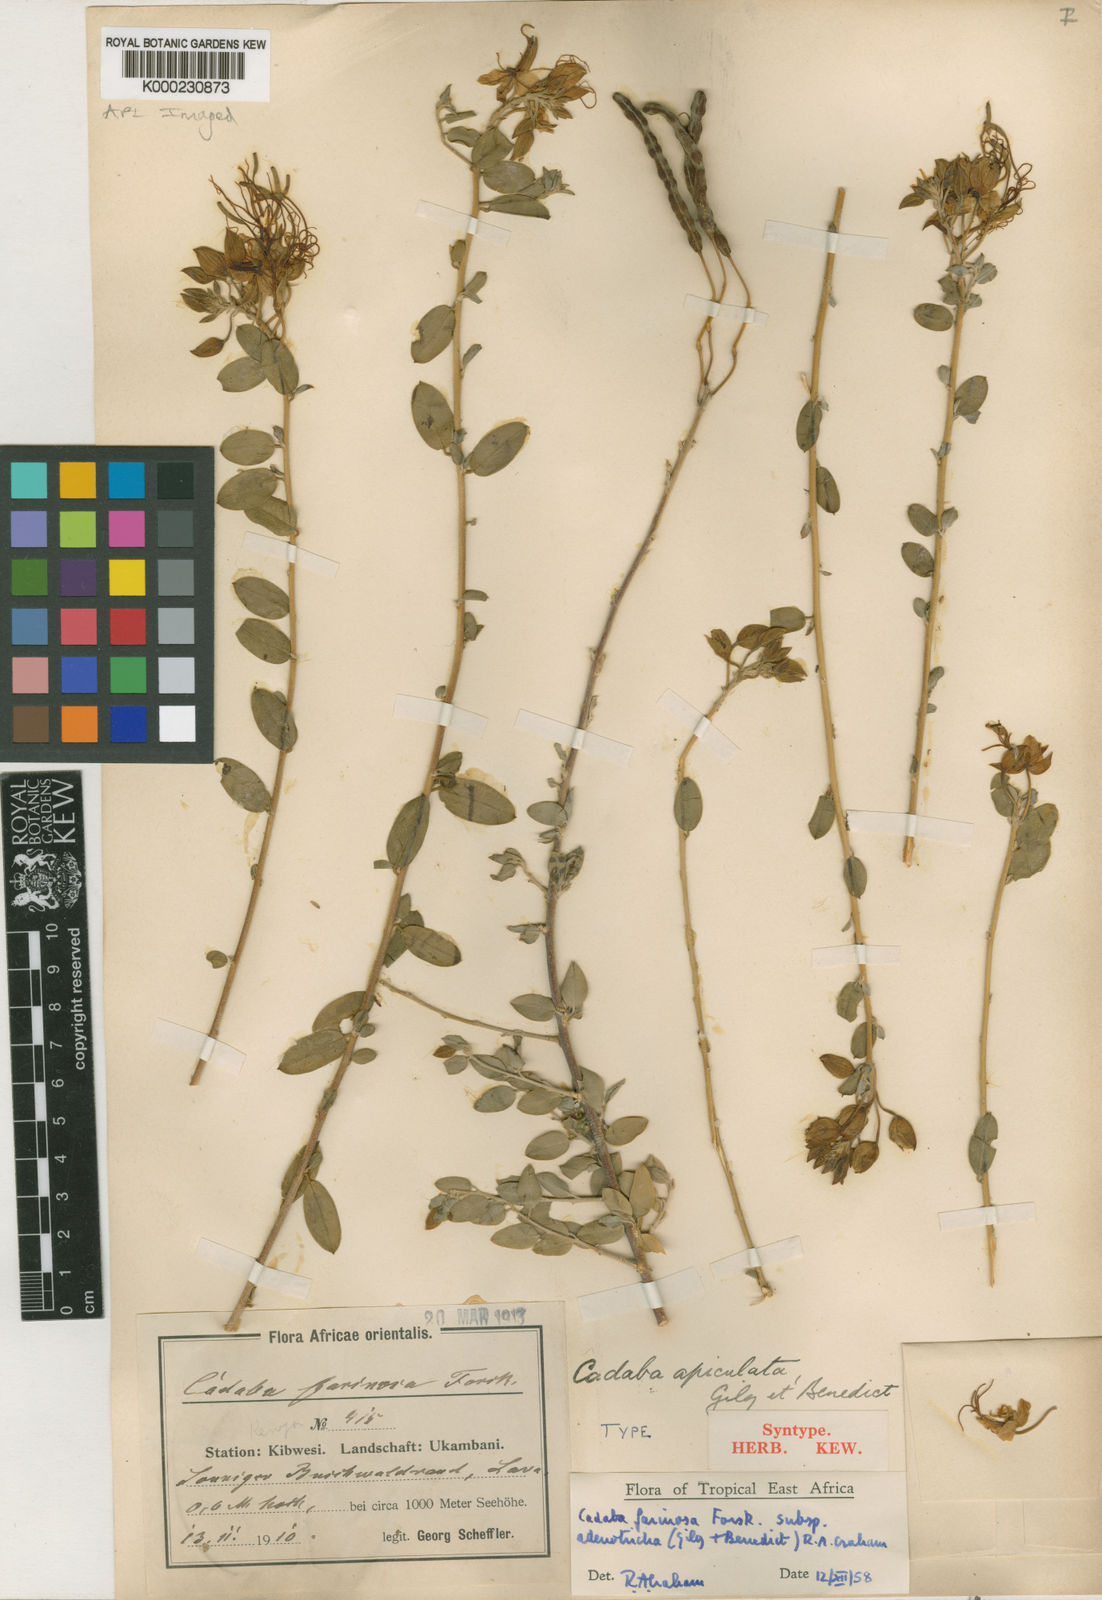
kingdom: Plantae
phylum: Tracheophyta
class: Magnoliopsida
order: Brassicales
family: Capparaceae
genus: Cadaba
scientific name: Cadaba farinosa
